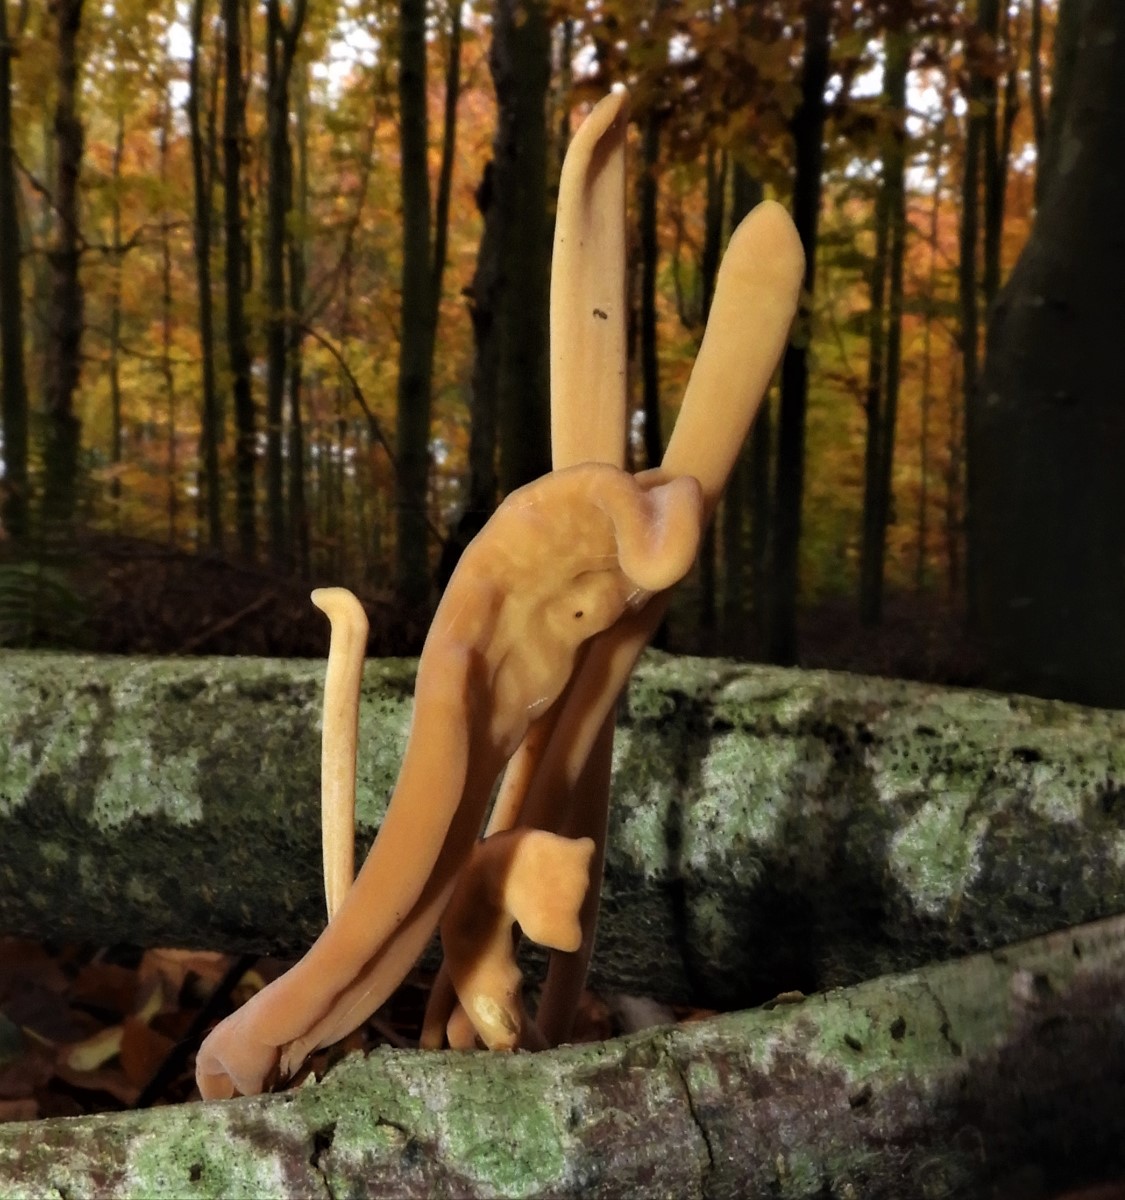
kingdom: Fungi
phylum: Basidiomycota
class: Agaricomycetes
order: Agaricales
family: Typhulaceae
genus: Typhula
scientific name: Typhula fistulosa
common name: pibet rørkølle
